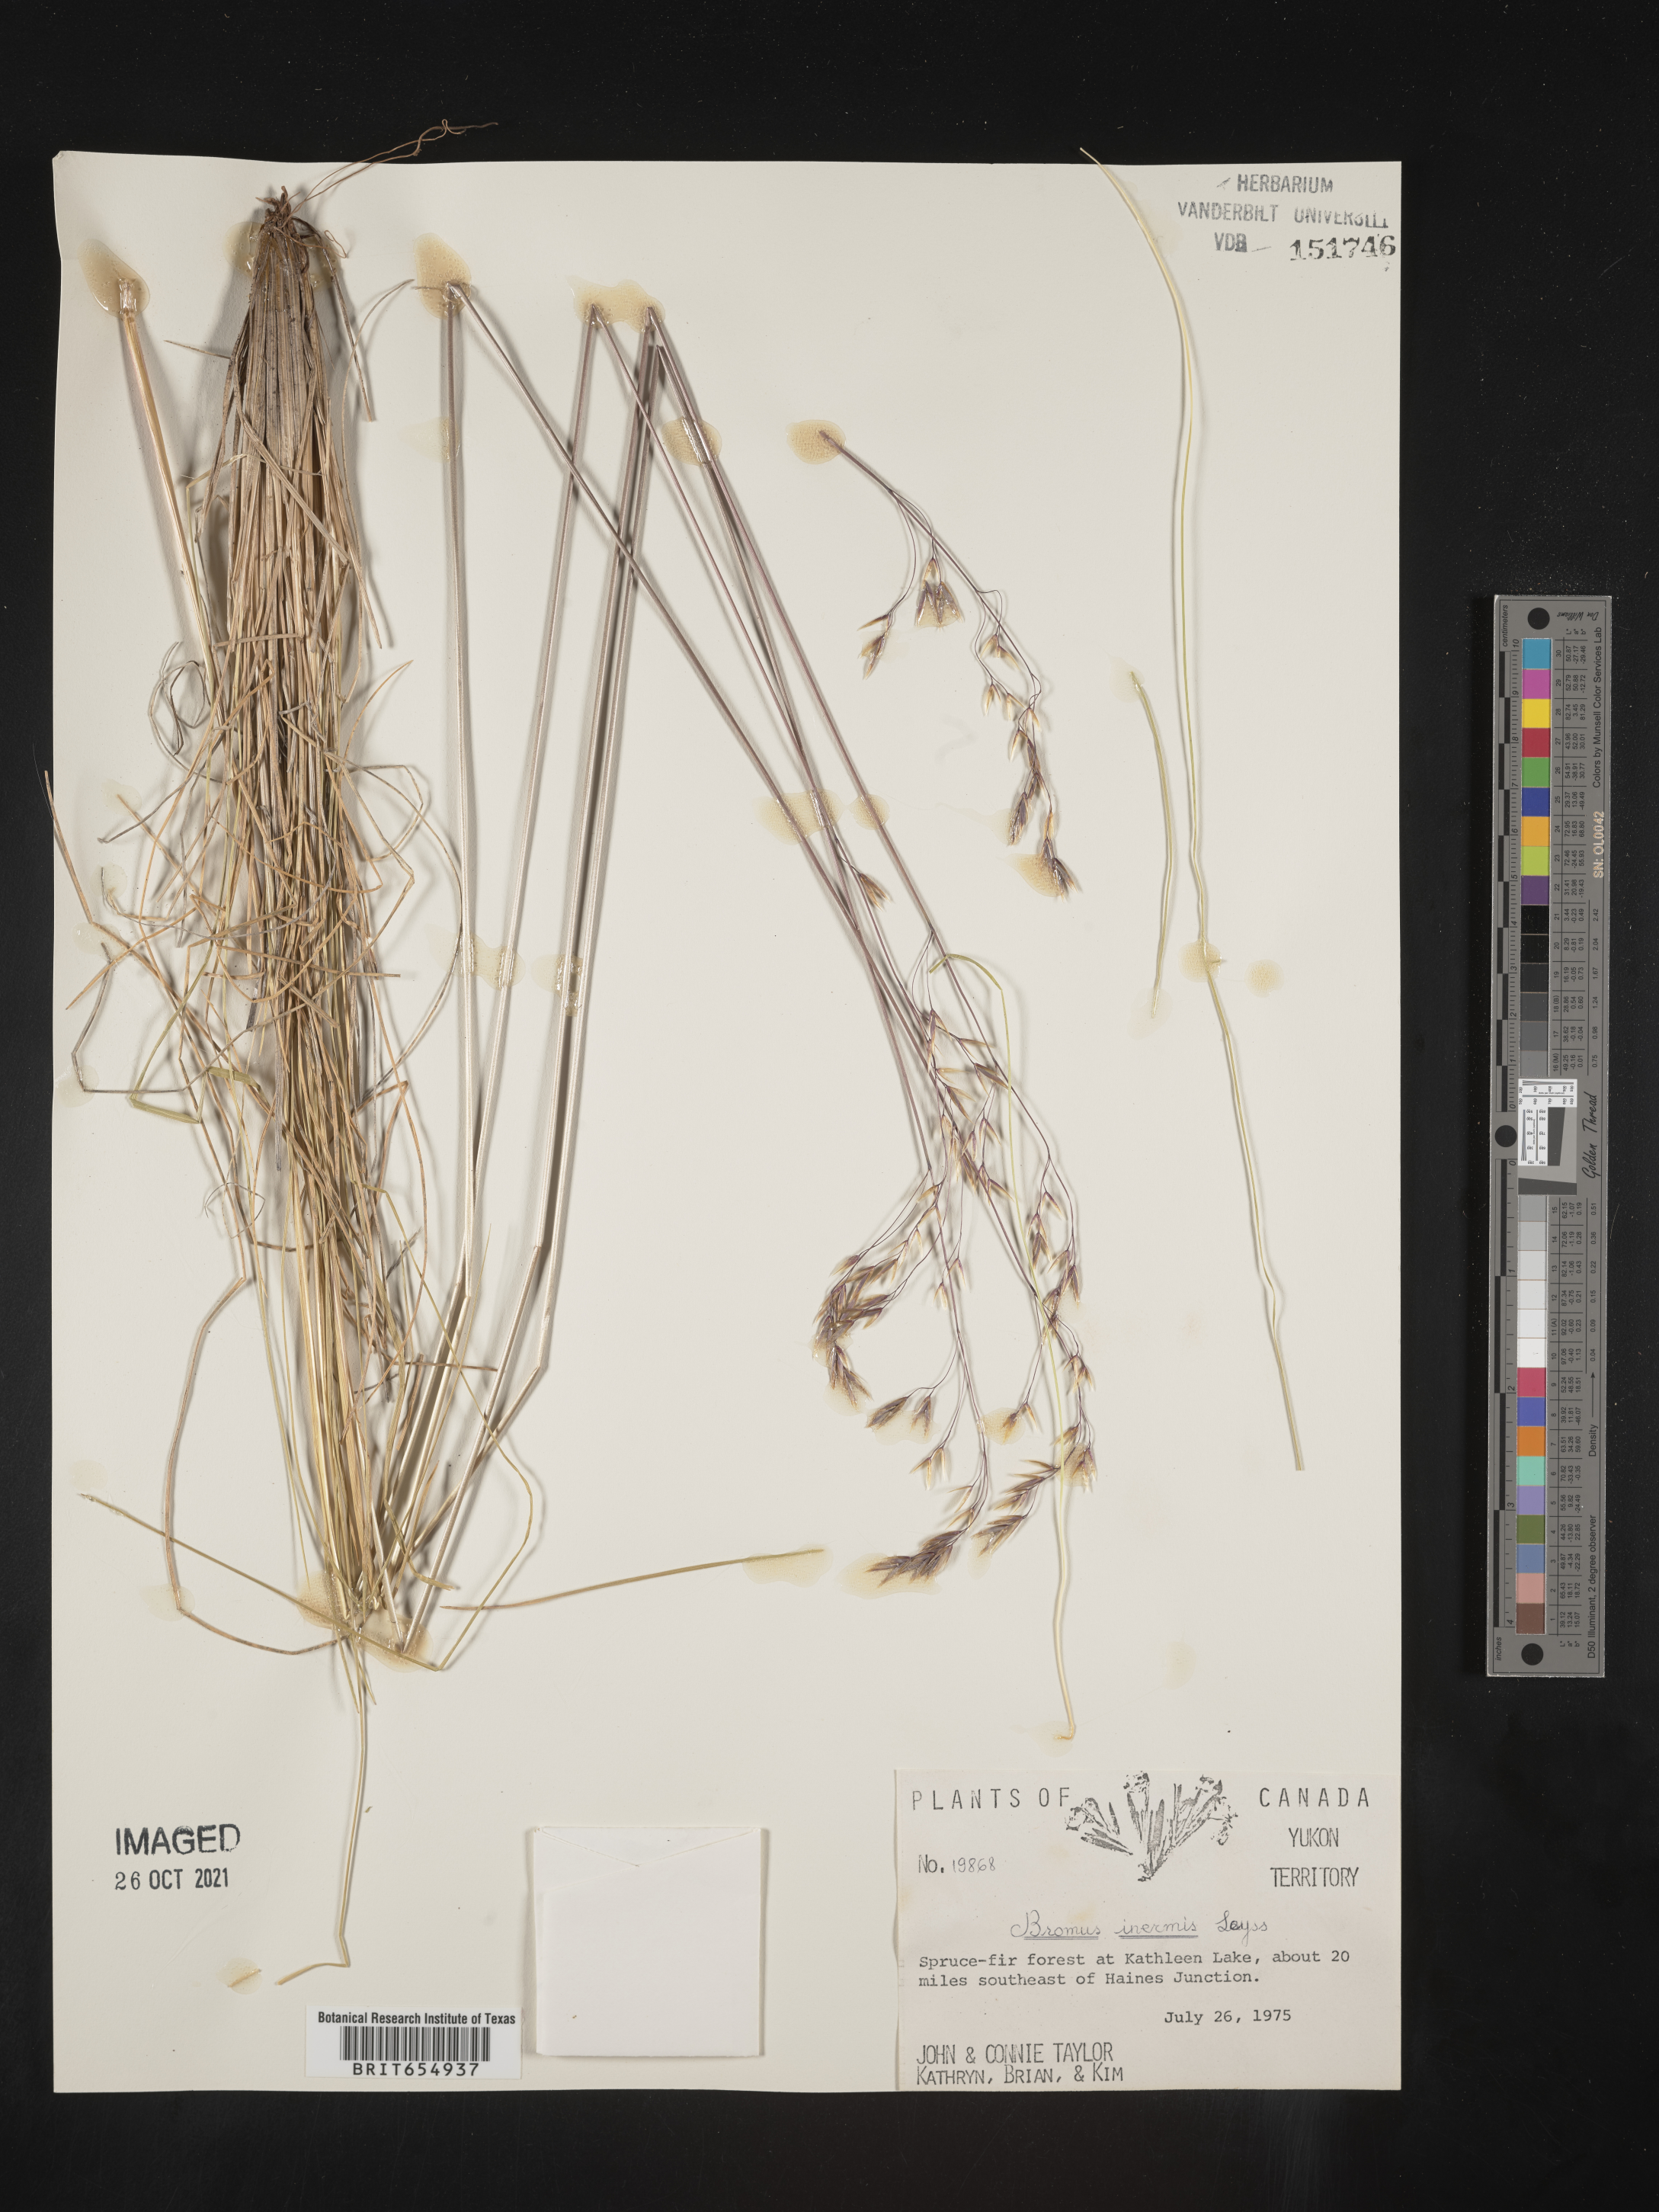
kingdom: Plantae
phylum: Tracheophyta
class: Liliopsida
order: Poales
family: Poaceae
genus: Bromus
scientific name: Bromus
